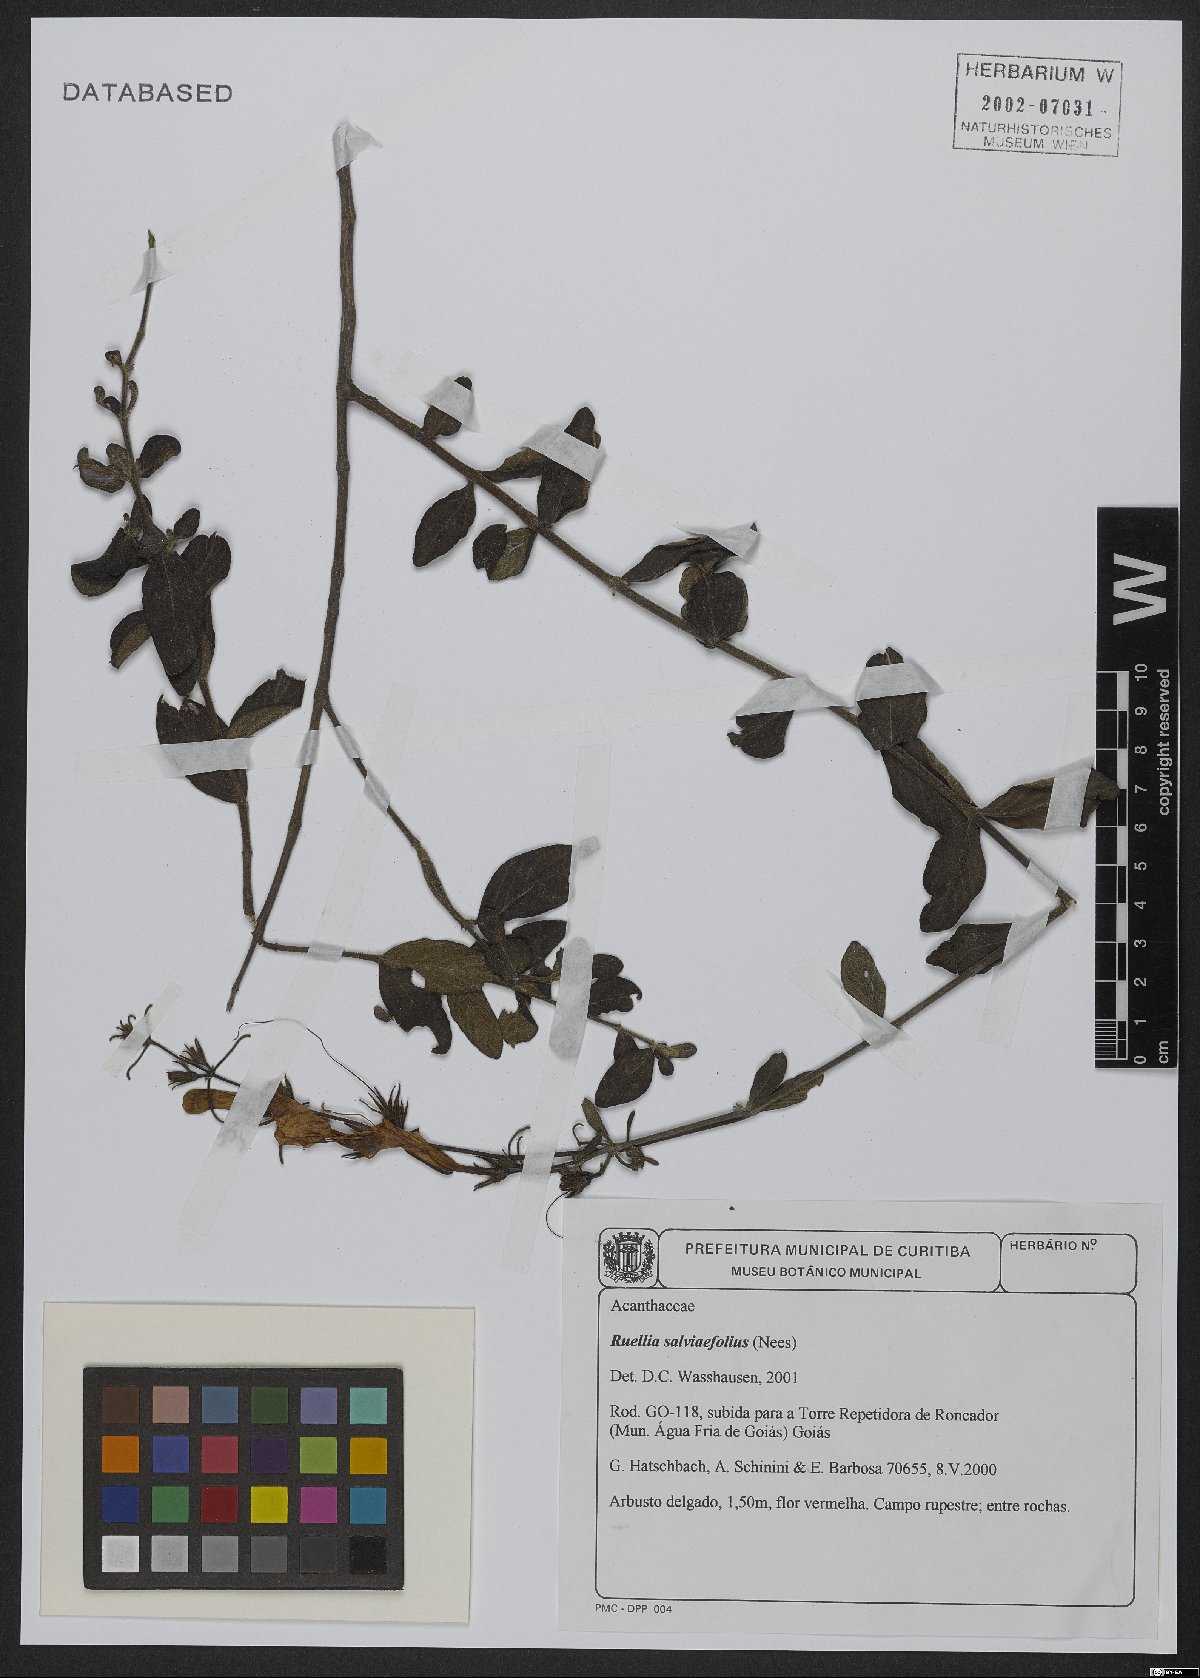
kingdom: Plantae
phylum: Tracheophyta
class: Magnoliopsida
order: Lamiales
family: Acanthaceae
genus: Ruellia
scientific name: Ruellia salviifolia
